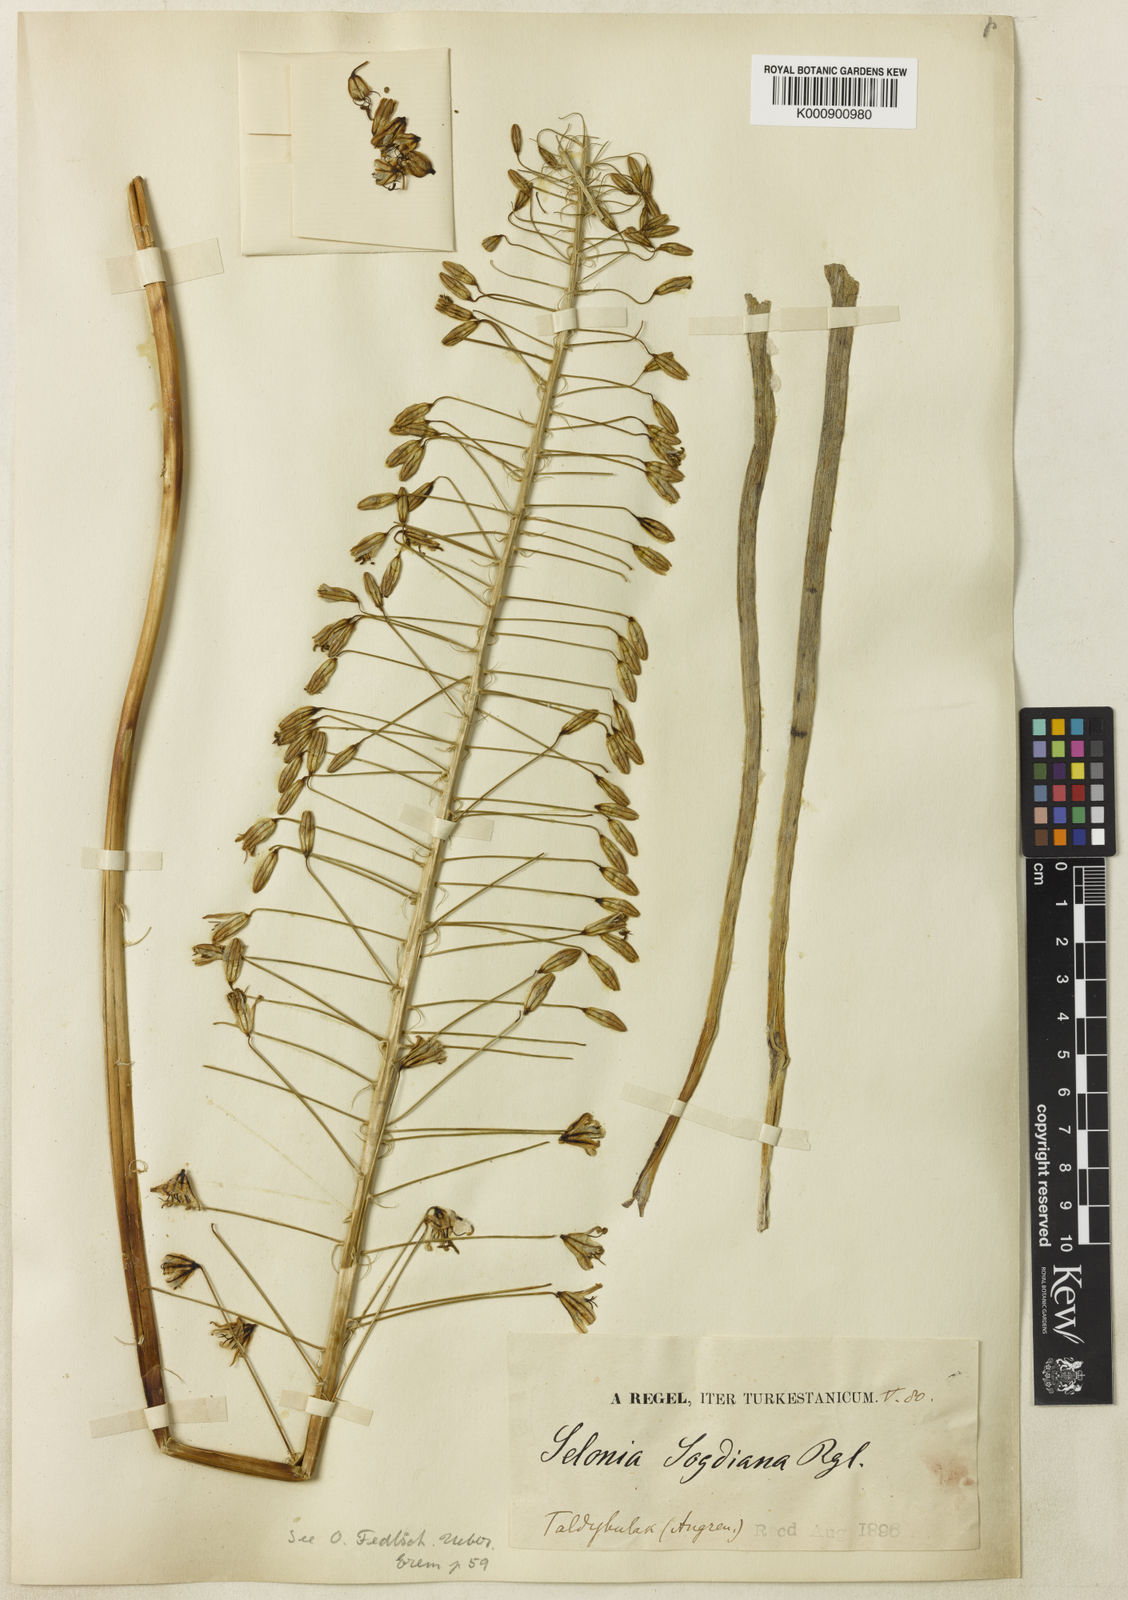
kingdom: Plantae
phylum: Tracheophyta
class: Liliopsida
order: Asparagales
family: Asphodelaceae
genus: Eremurus
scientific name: Eremurus soogdianus
